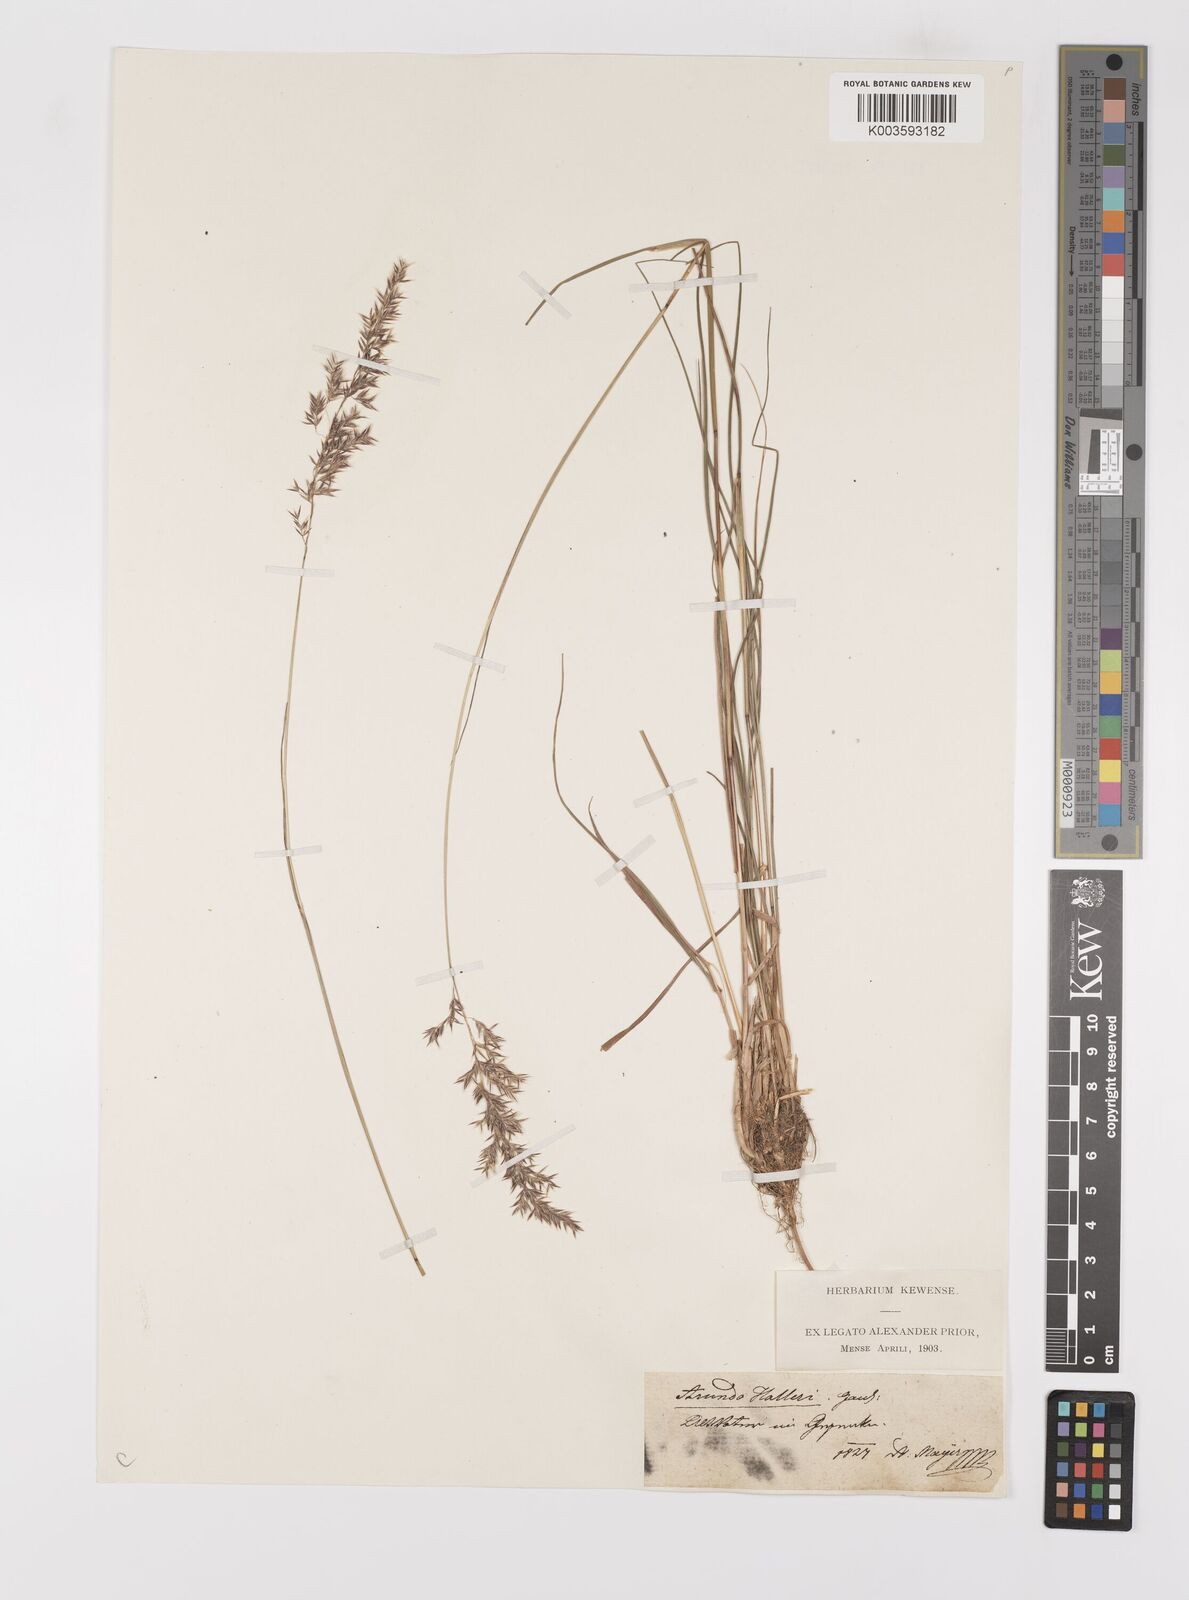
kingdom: Plantae
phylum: Tracheophyta
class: Liliopsida
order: Poales
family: Poaceae
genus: Calamagrostis
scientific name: Calamagrostis
